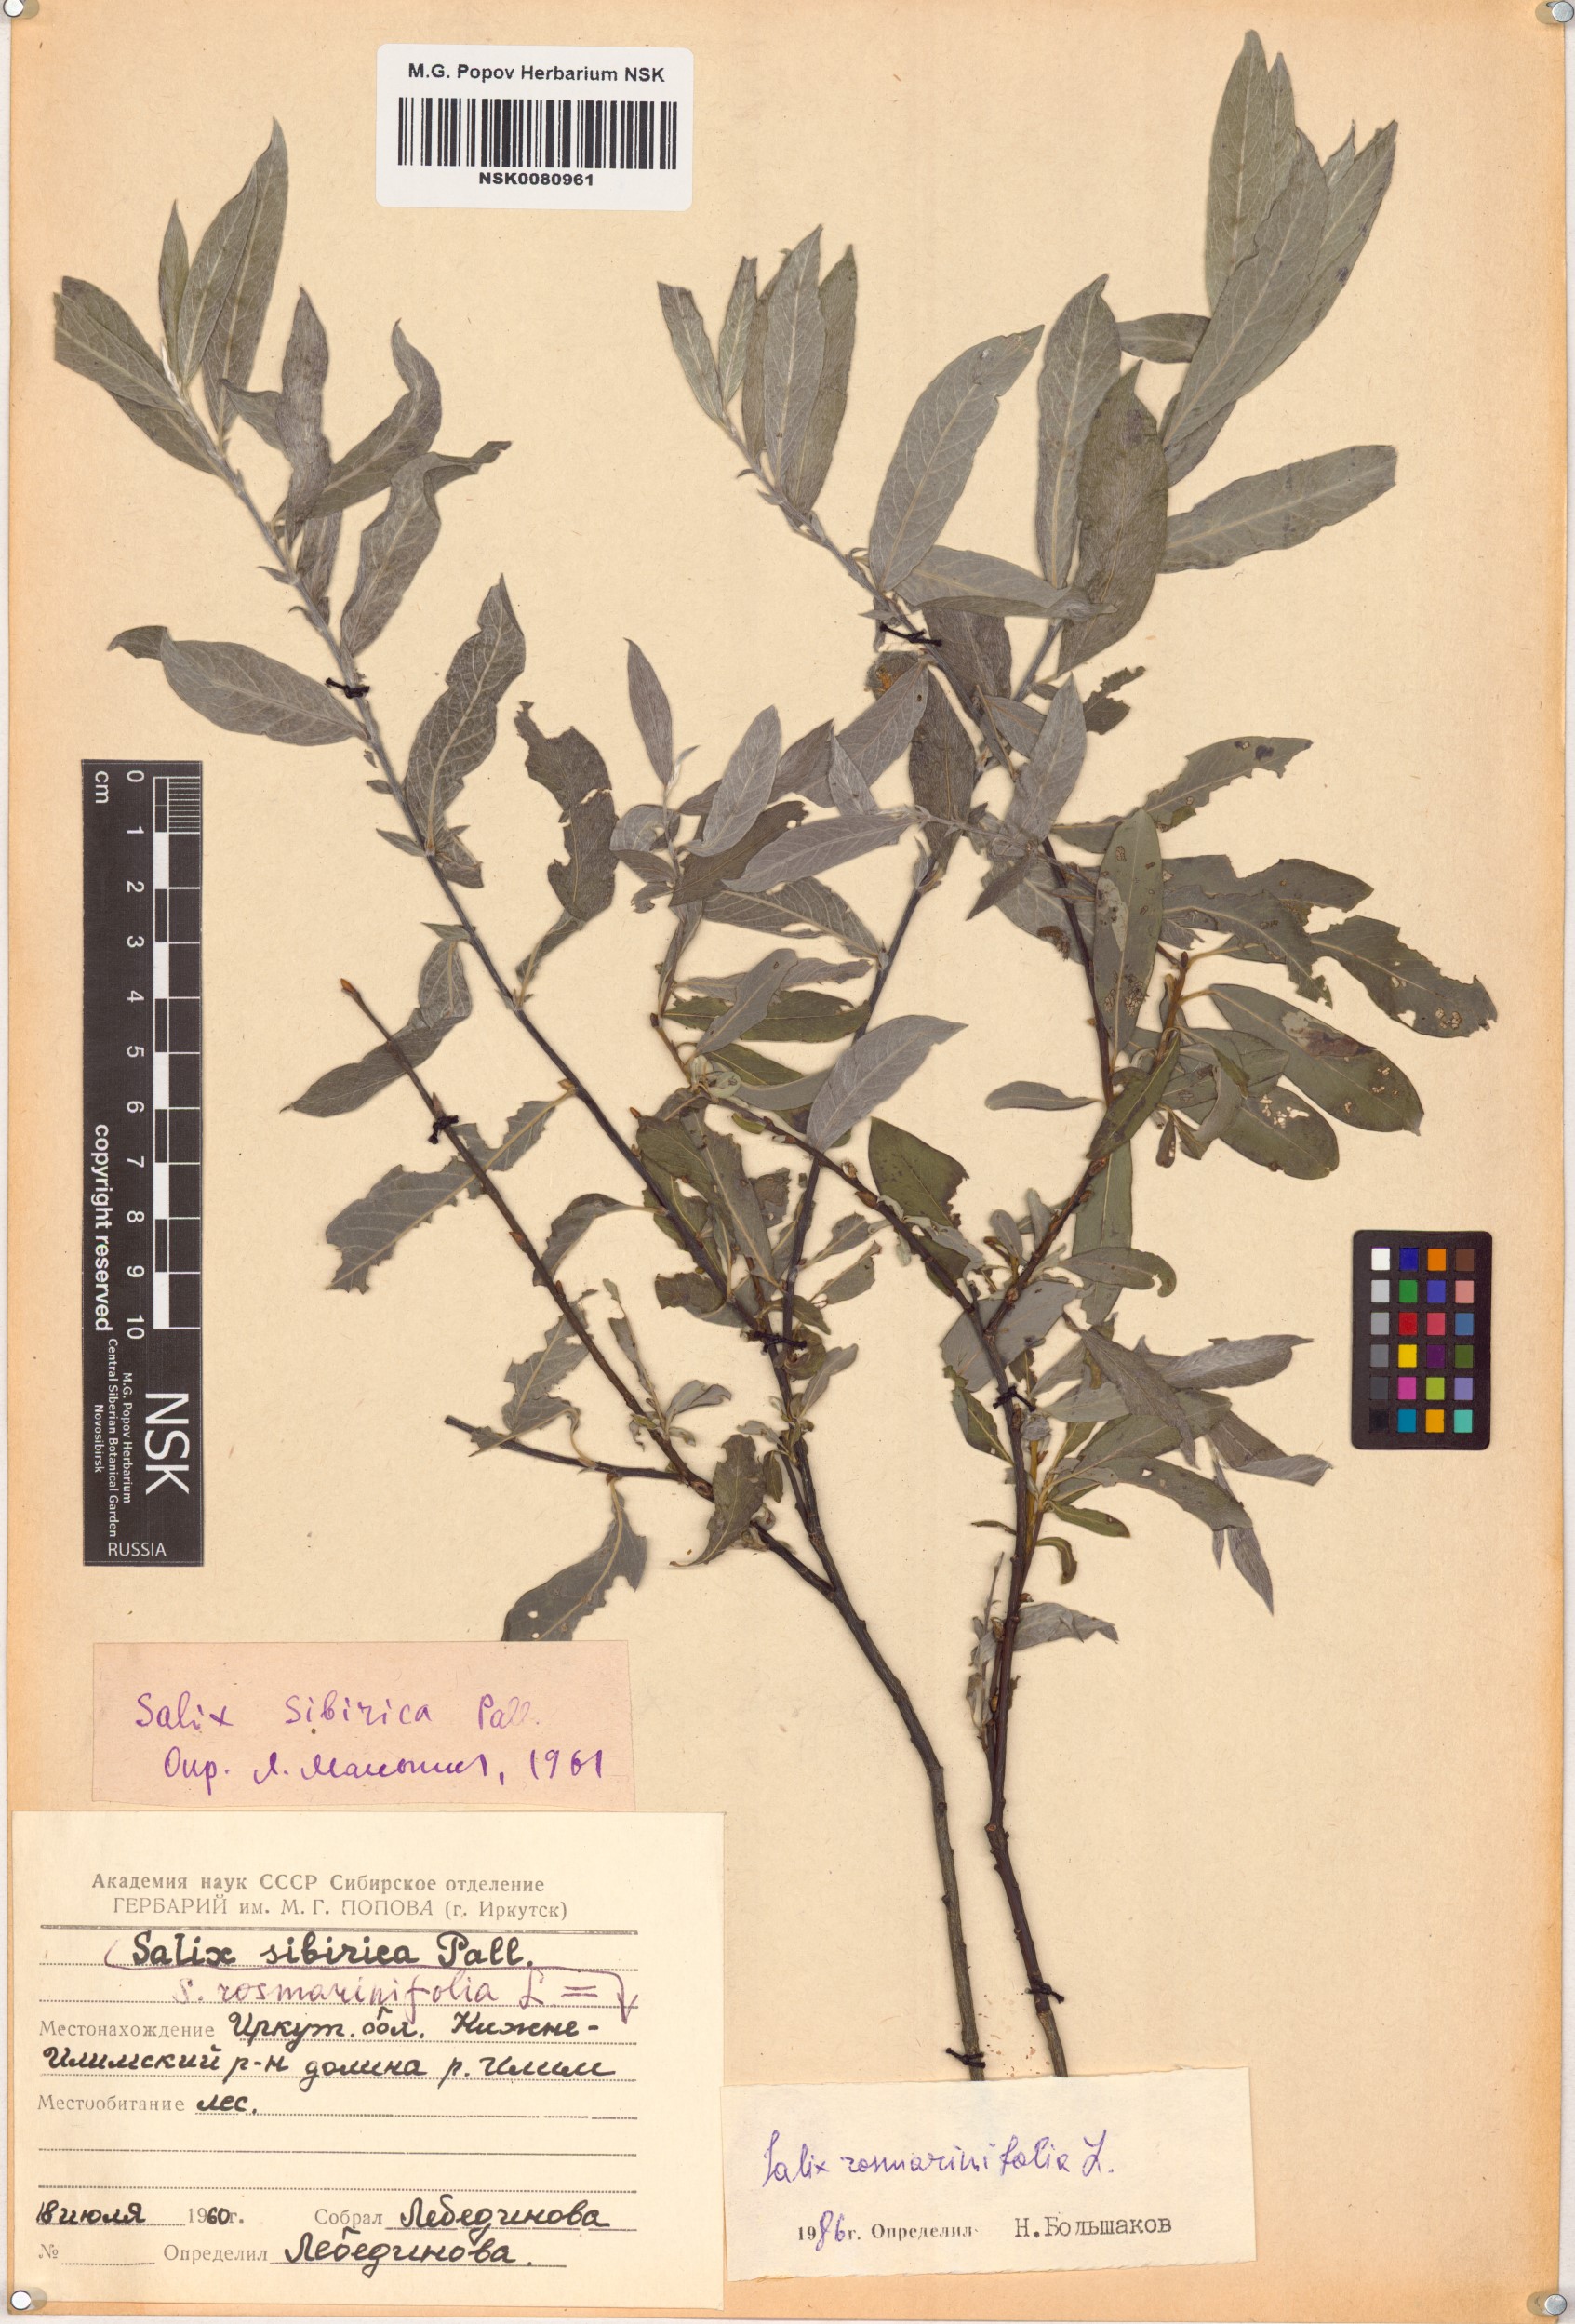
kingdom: Plantae
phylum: Tracheophyta
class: Magnoliopsida
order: Malpighiales
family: Salicaceae
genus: Salix
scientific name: Salix rosmarinifolia
